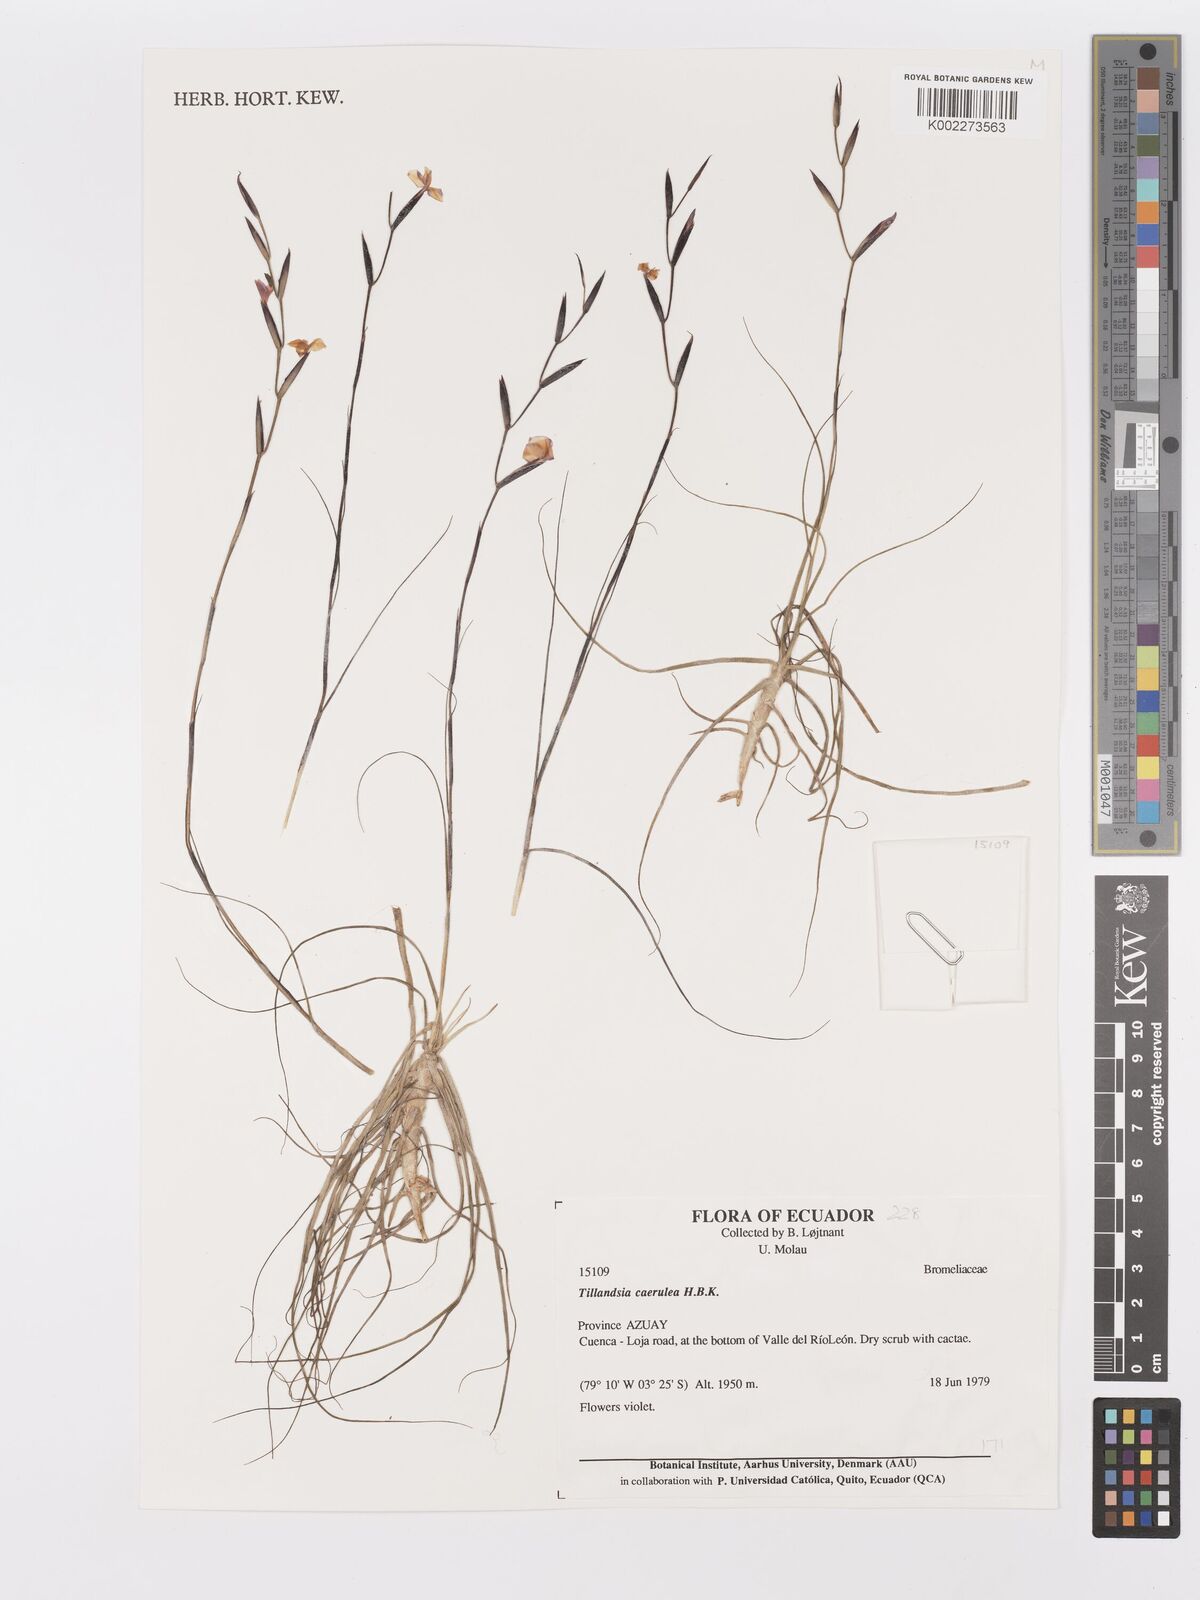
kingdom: Plantae
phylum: Tracheophyta
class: Liliopsida
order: Poales
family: Bromeliaceae
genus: Tillandsia
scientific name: Tillandsia caerulea
